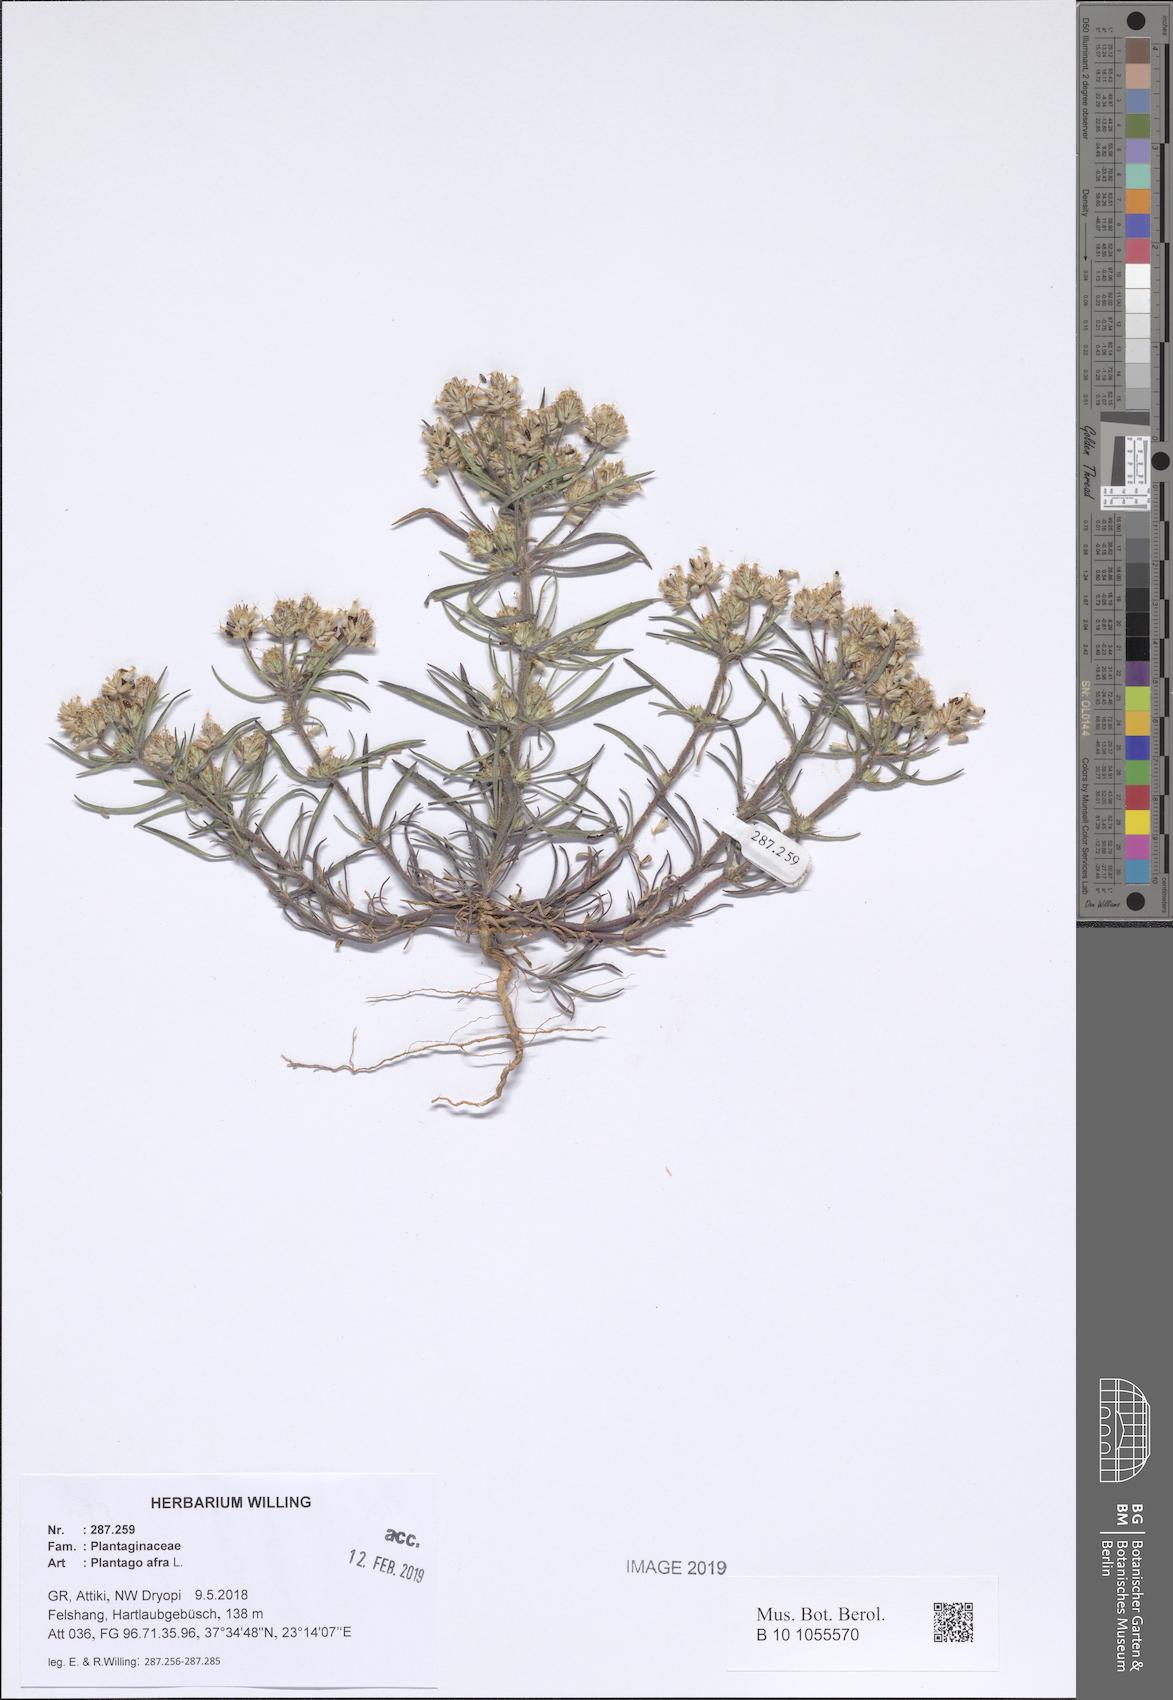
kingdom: Plantae
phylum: Tracheophyta
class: Magnoliopsida
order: Lamiales
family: Plantaginaceae
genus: Plantago
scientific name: Plantago afra
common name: Glandular plantain
